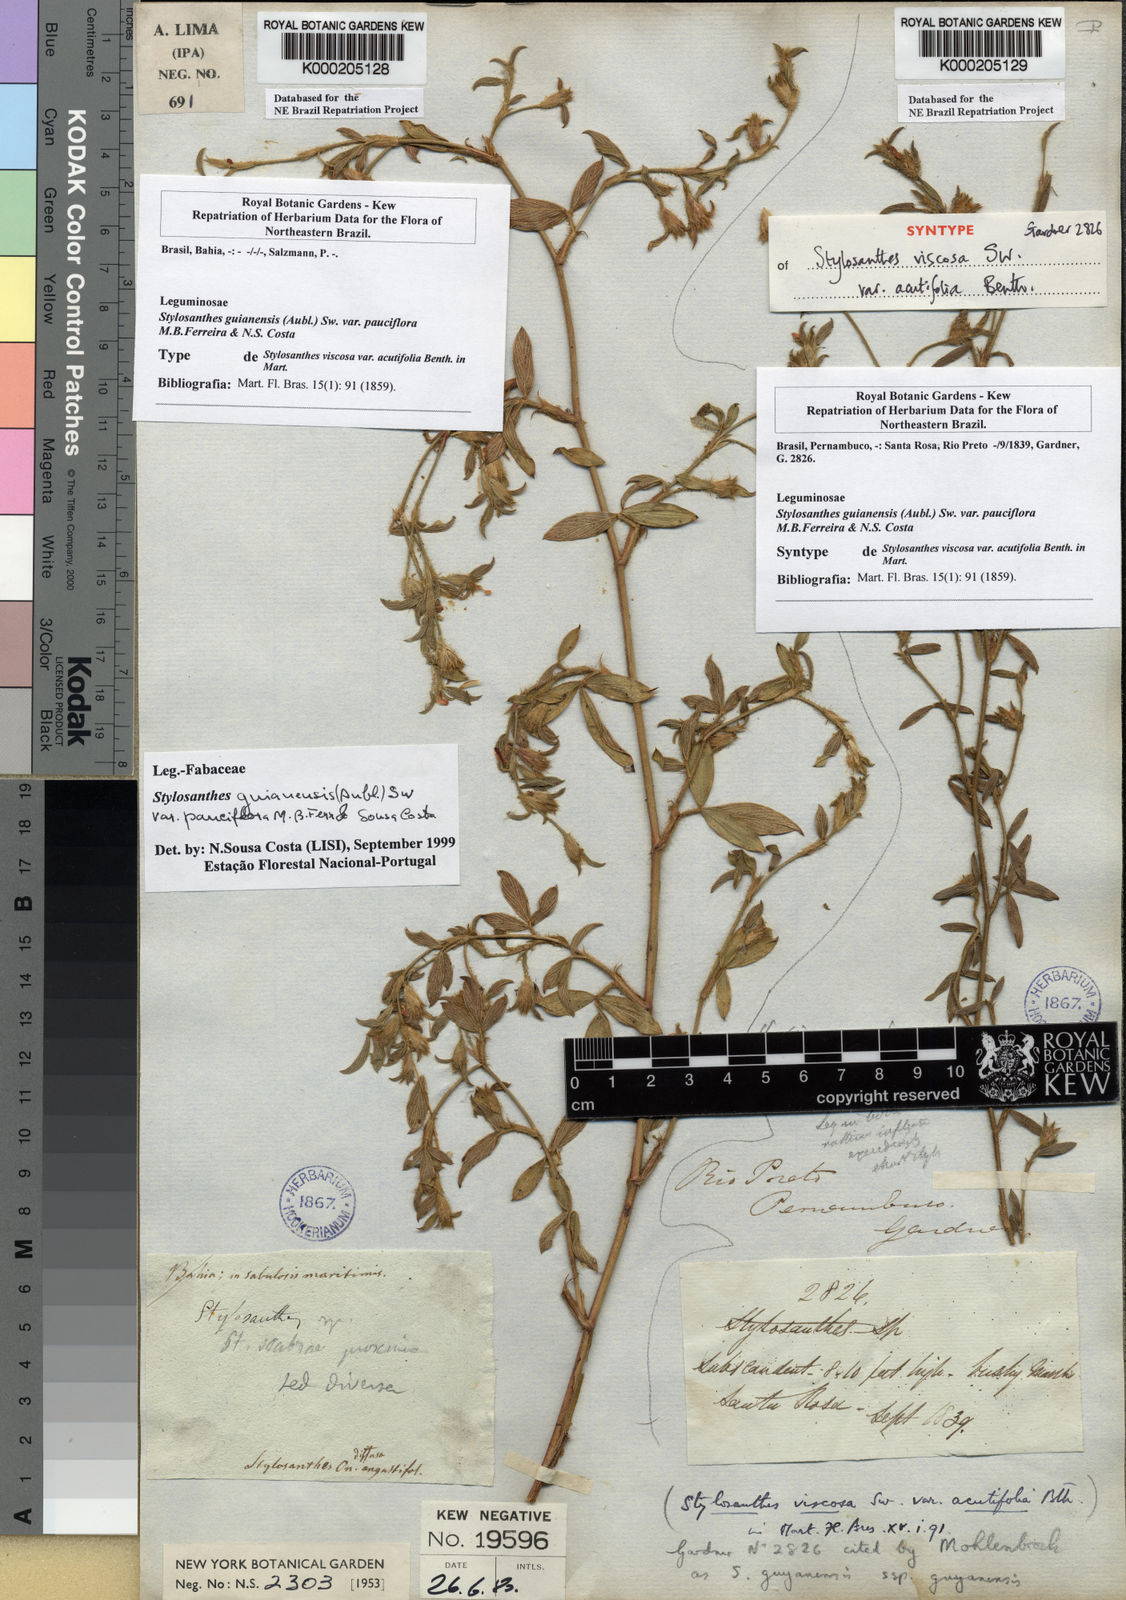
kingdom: Plantae
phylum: Tracheophyta
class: Magnoliopsida
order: Fabales
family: Fabaceae
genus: Stylosanthes
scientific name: Stylosanthes guianensis
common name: Pencil flower
